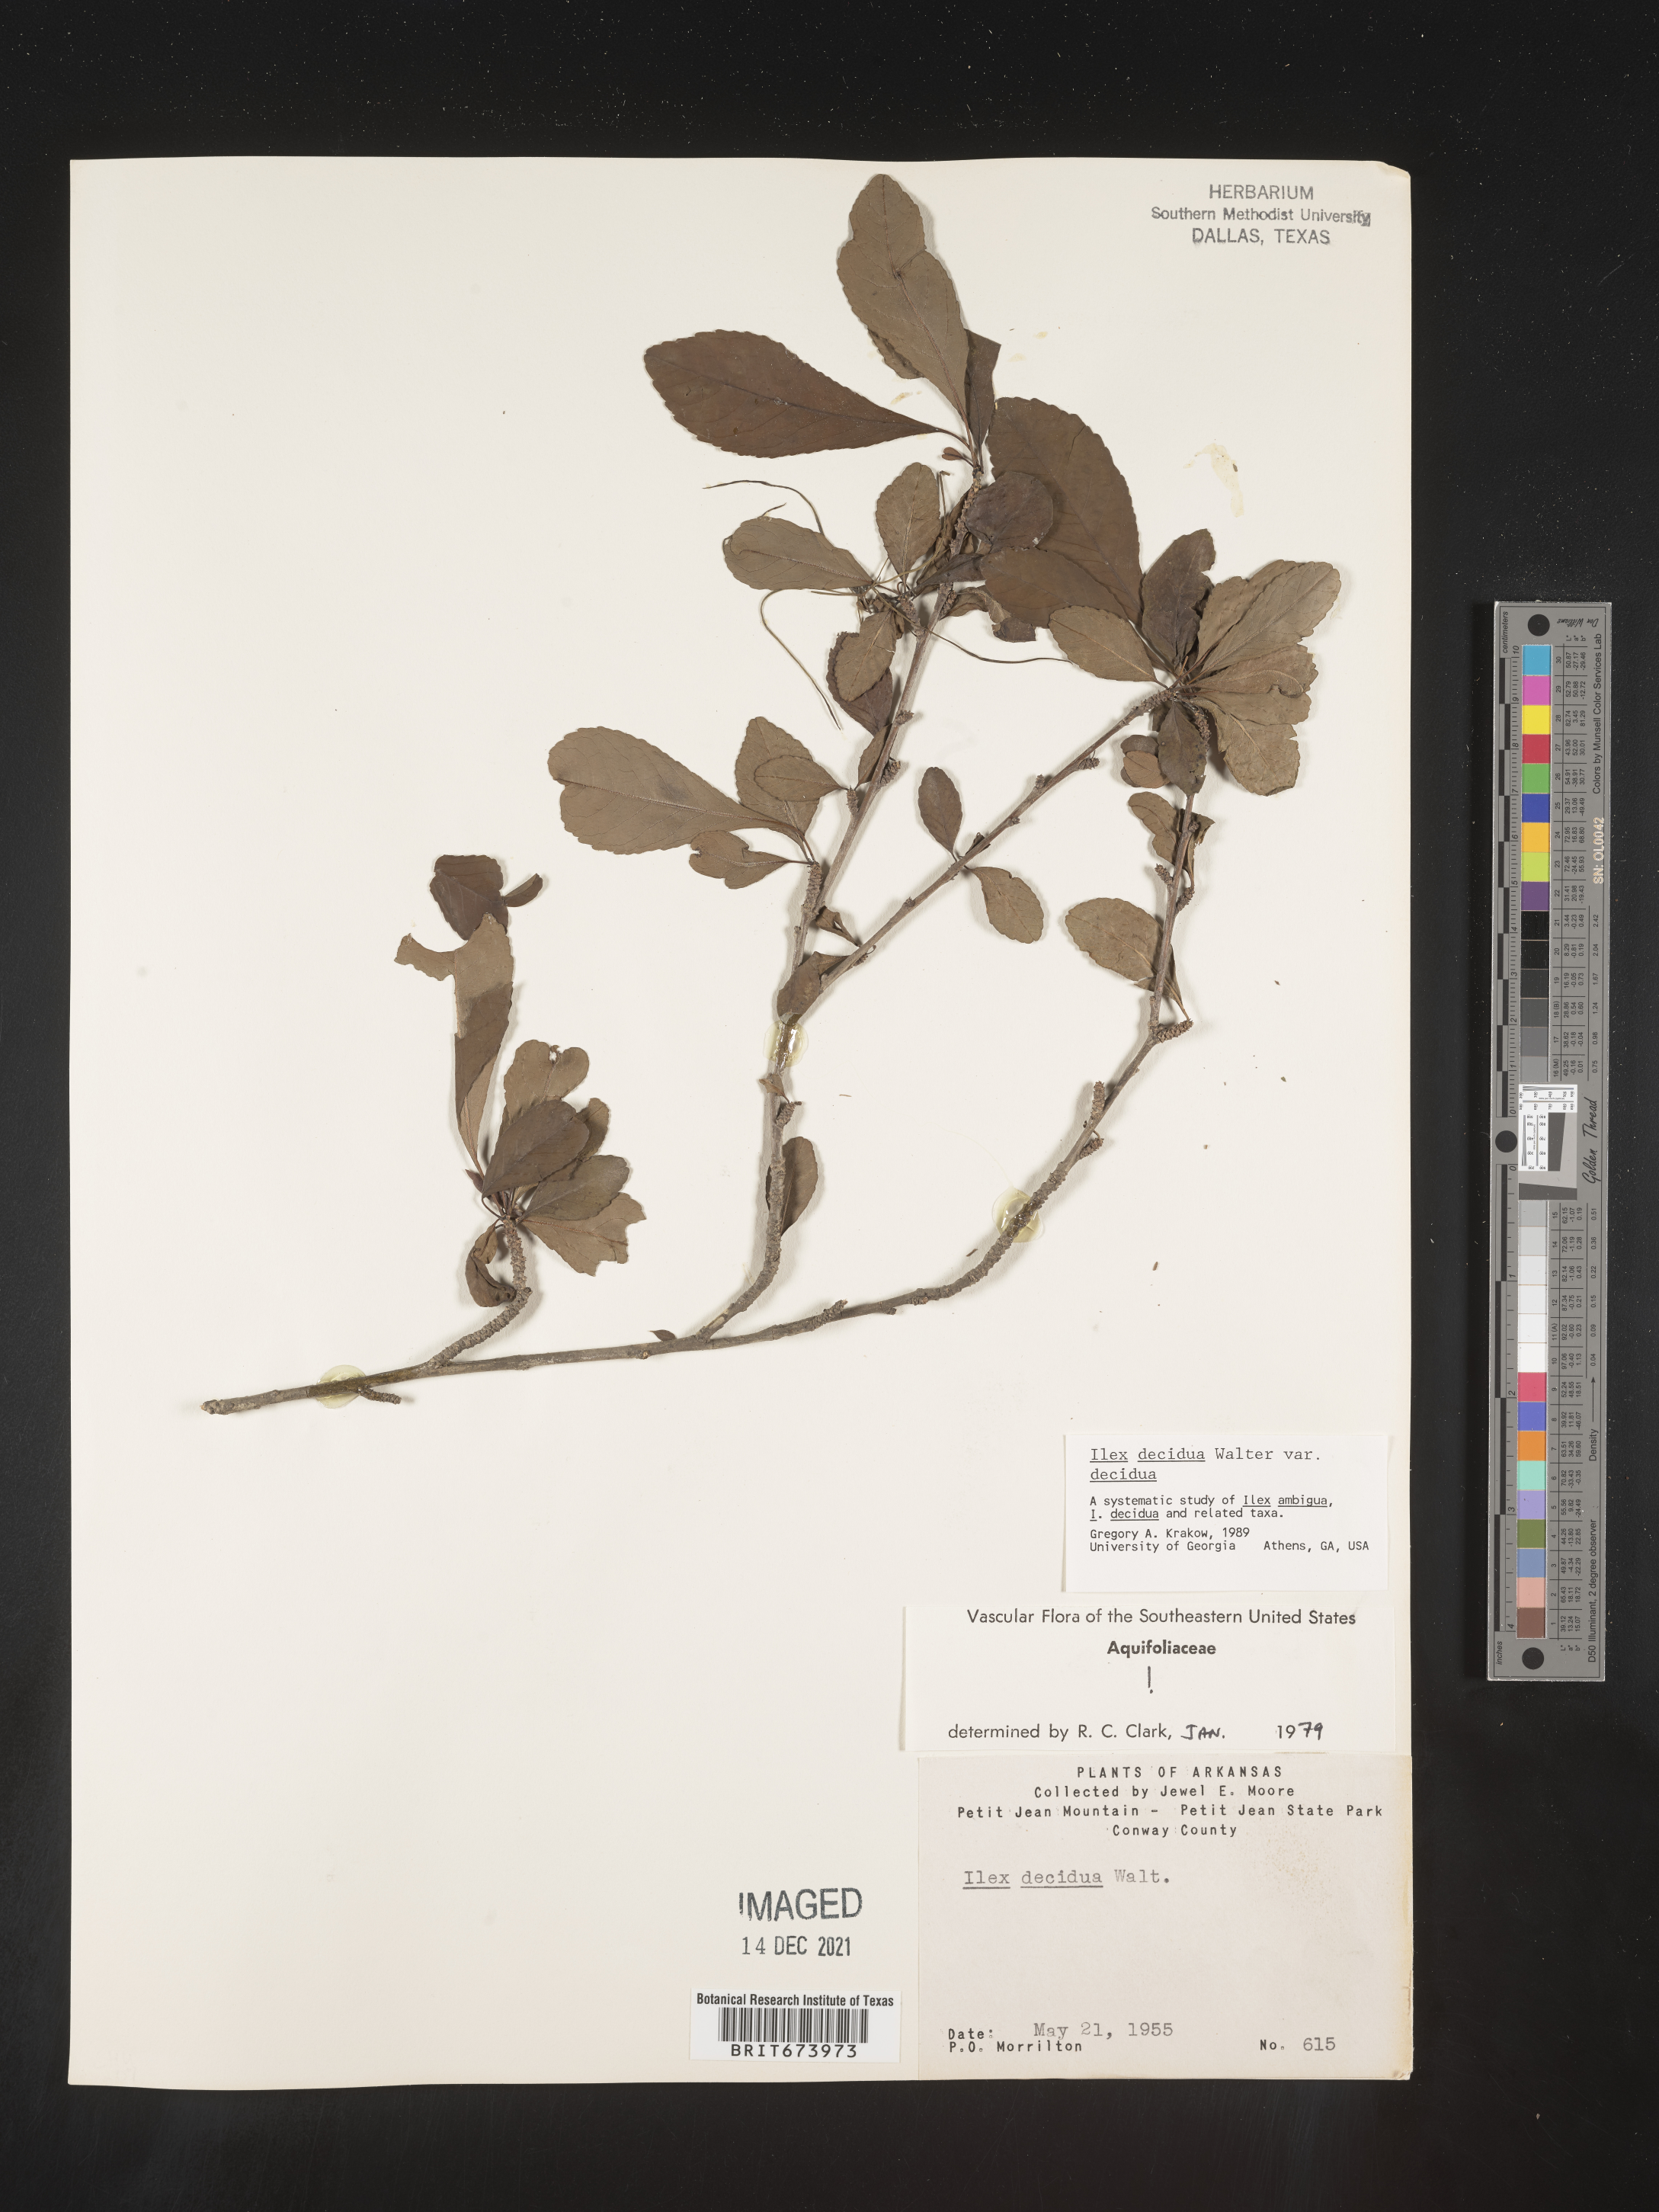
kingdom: Plantae
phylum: Tracheophyta
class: Magnoliopsida
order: Aquifoliales
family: Aquifoliaceae
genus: Ilex
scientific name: Ilex decidua
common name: Possum-haw
